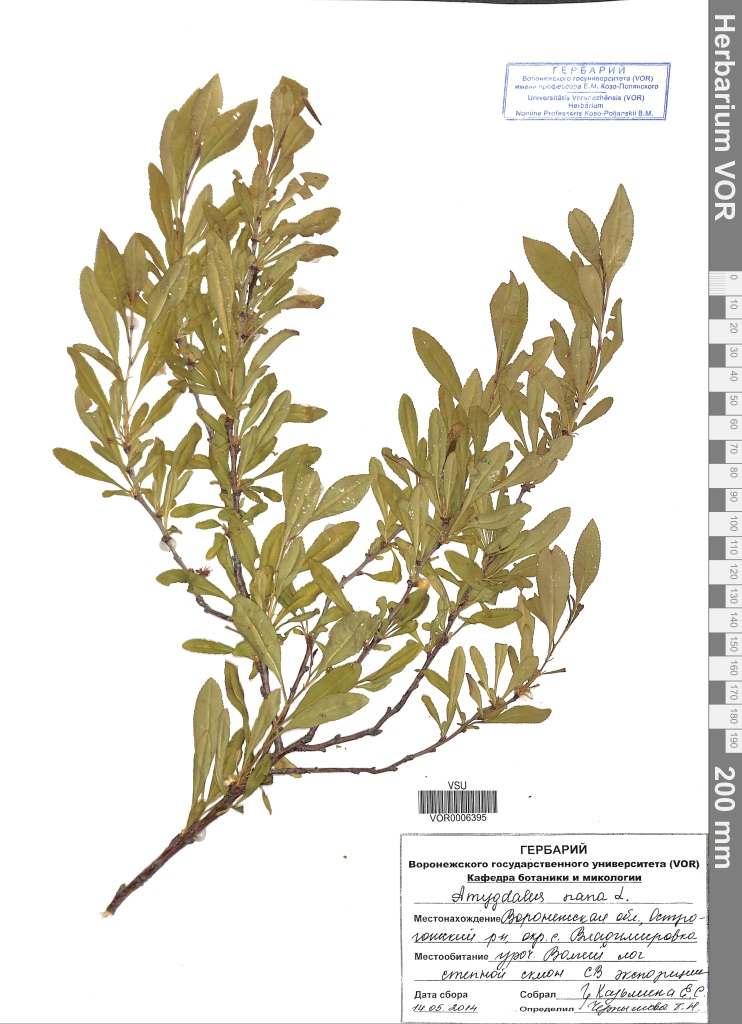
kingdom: Plantae
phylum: Tracheophyta
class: Magnoliopsida
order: Rosales
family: Rosaceae
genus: Prunus
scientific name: Prunus tenella
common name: Dwarf russian almond
